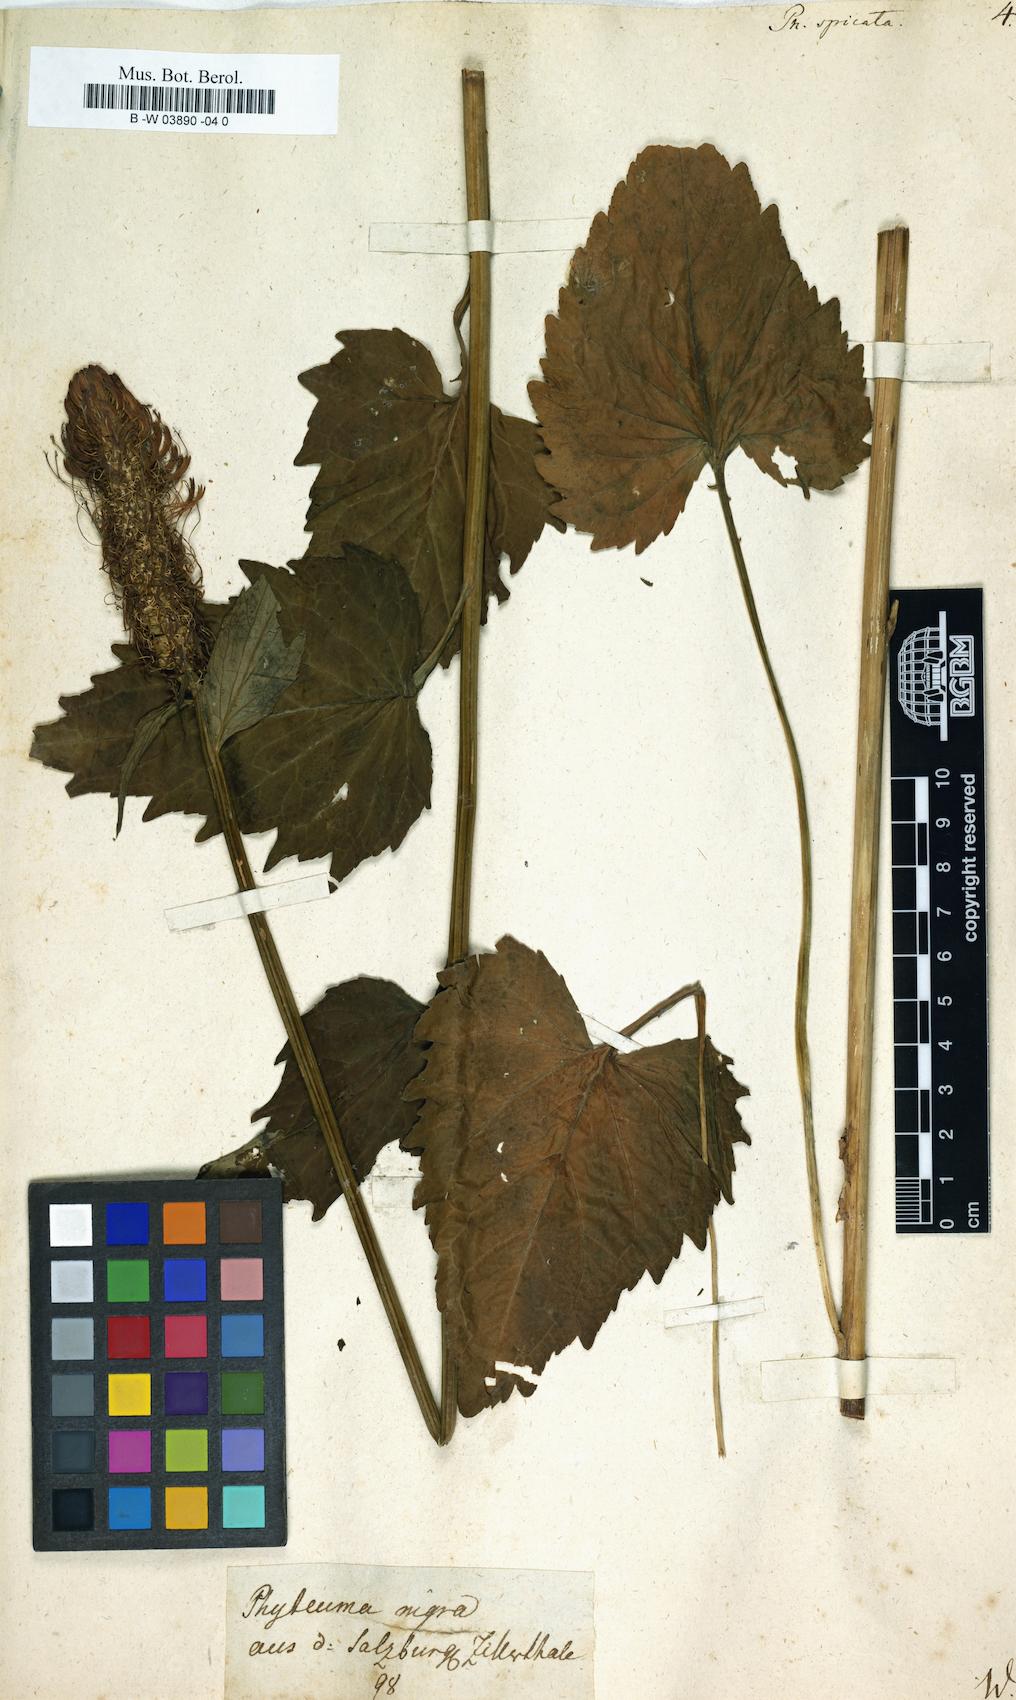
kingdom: Plantae
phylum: Tracheophyta
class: Magnoliopsida
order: Asterales
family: Campanulaceae
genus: Phyteuma
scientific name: Phyteuma spicatum
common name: Spiked rampion
